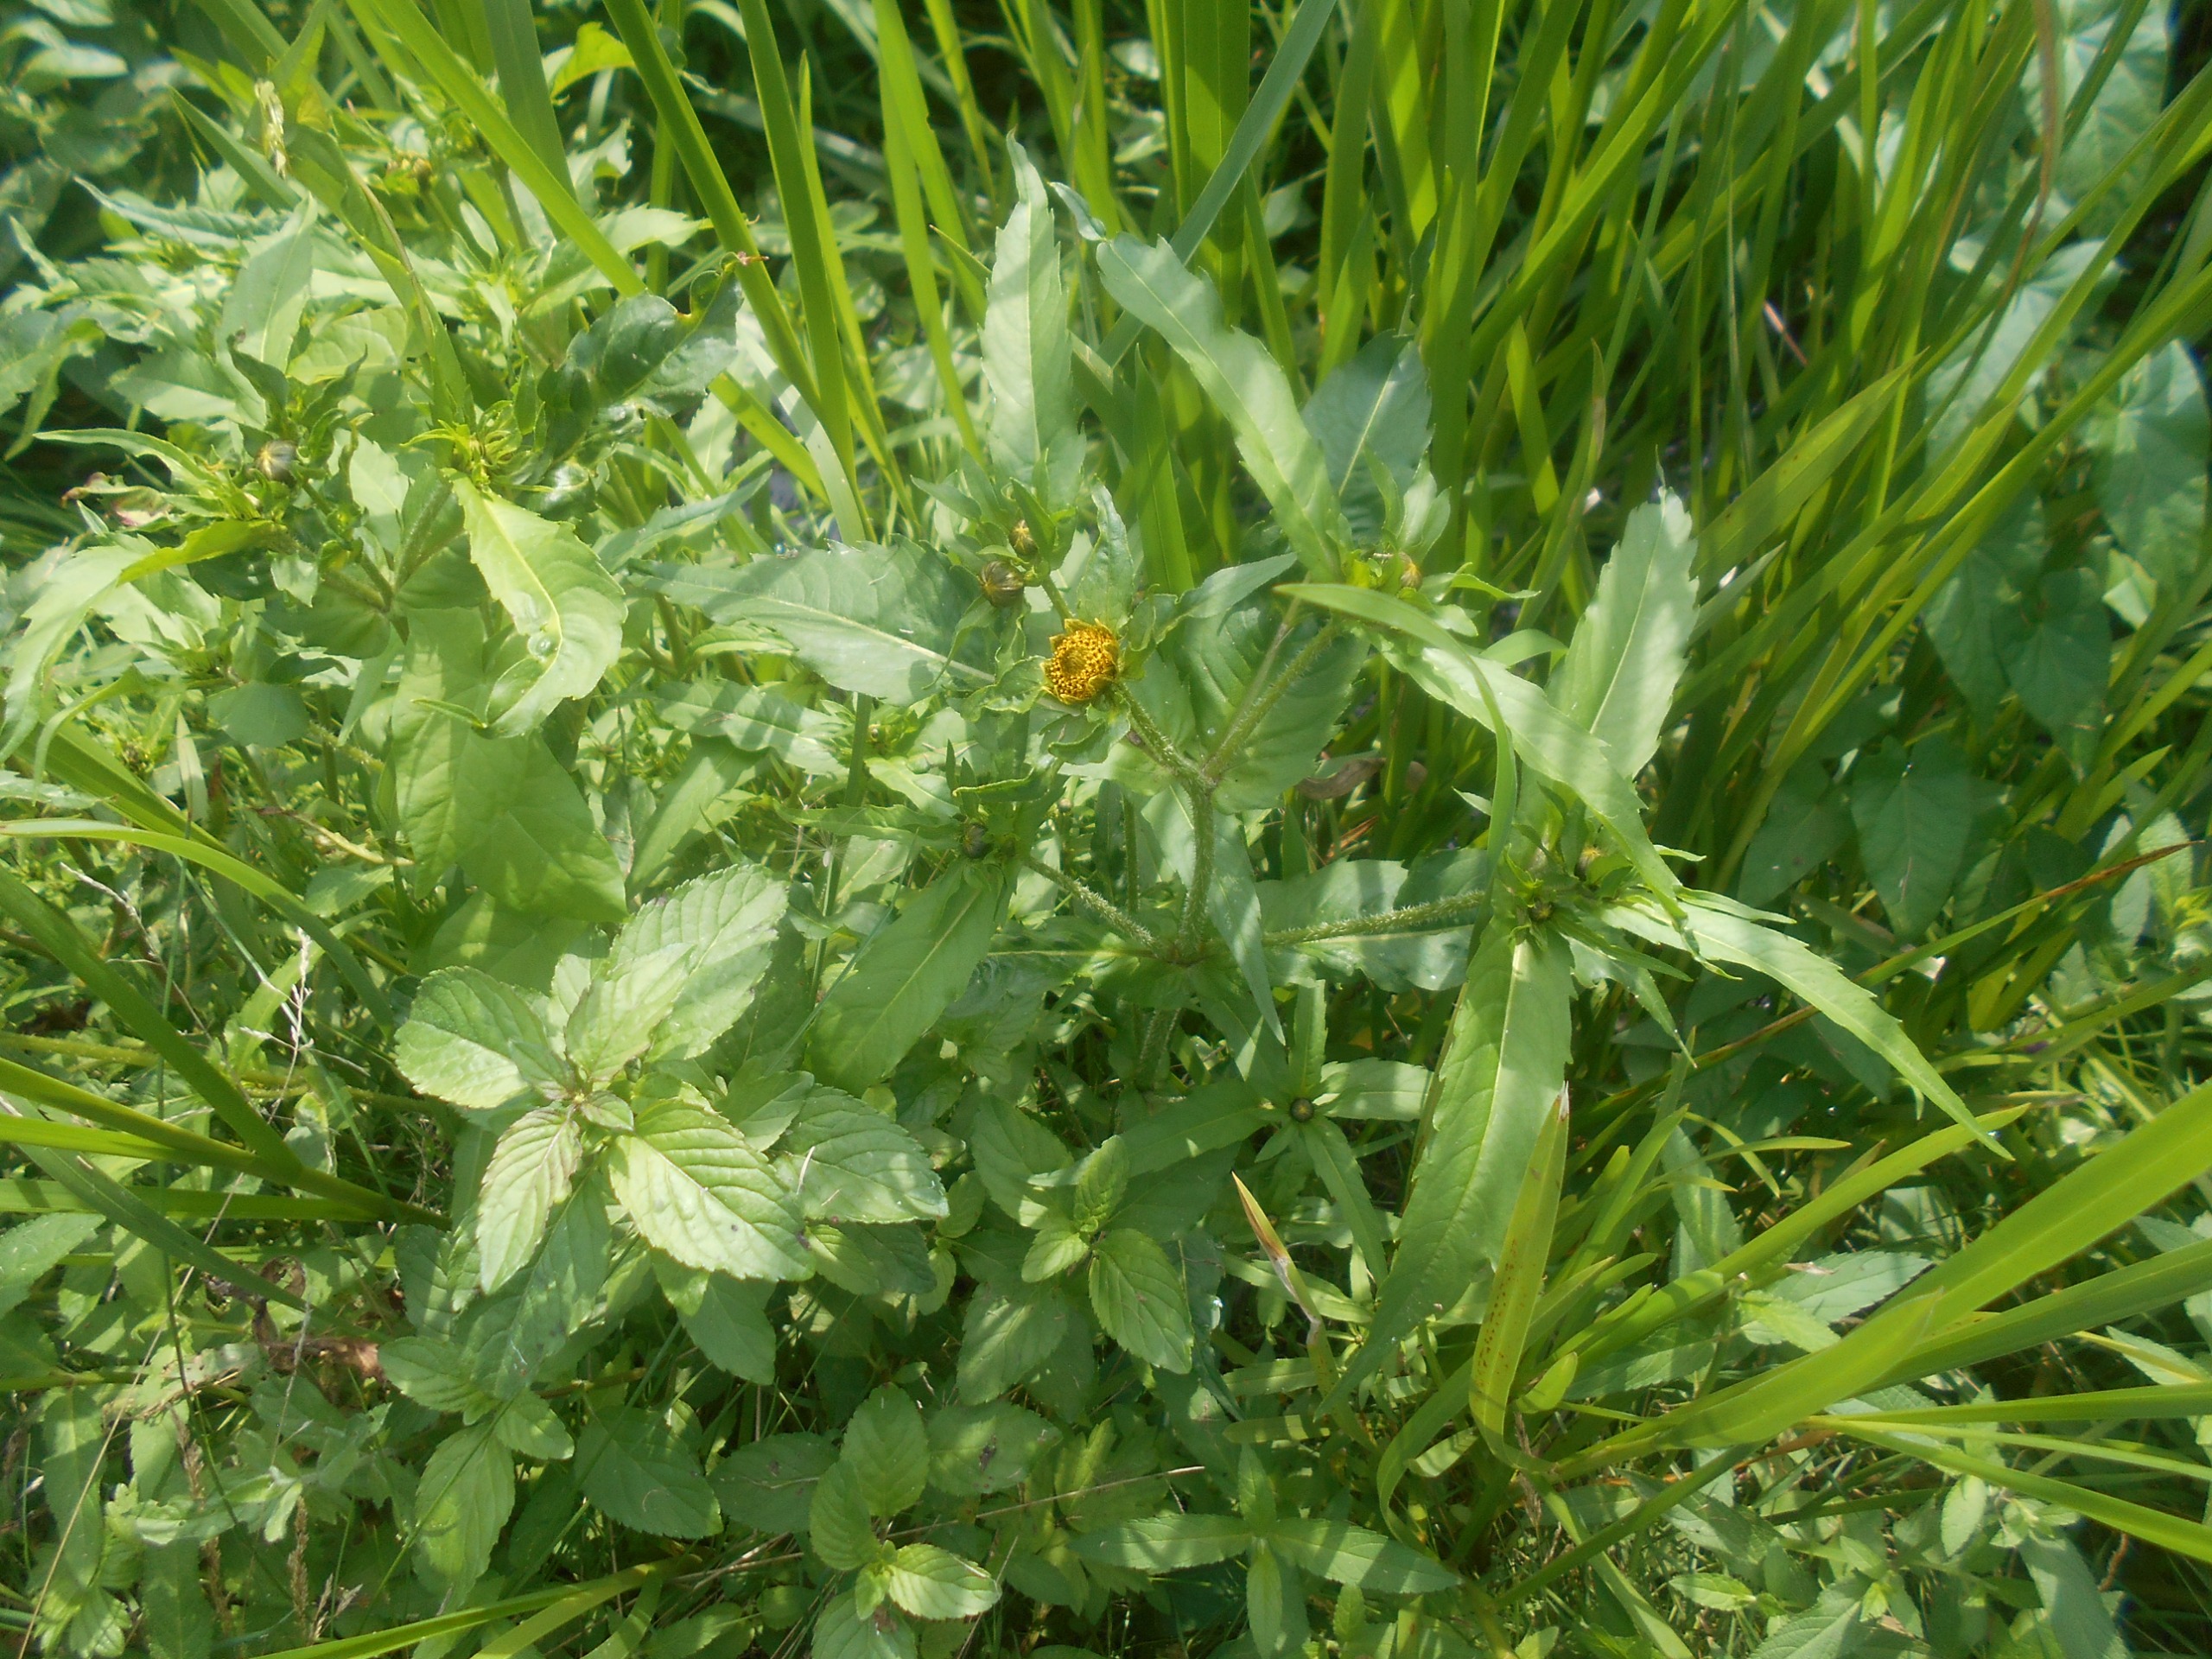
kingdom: Plantae
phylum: Tracheophyta
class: Magnoliopsida
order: Asterales
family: Asteraceae
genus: Bidens
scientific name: Bidens cernua
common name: Nikkende brøndsel
